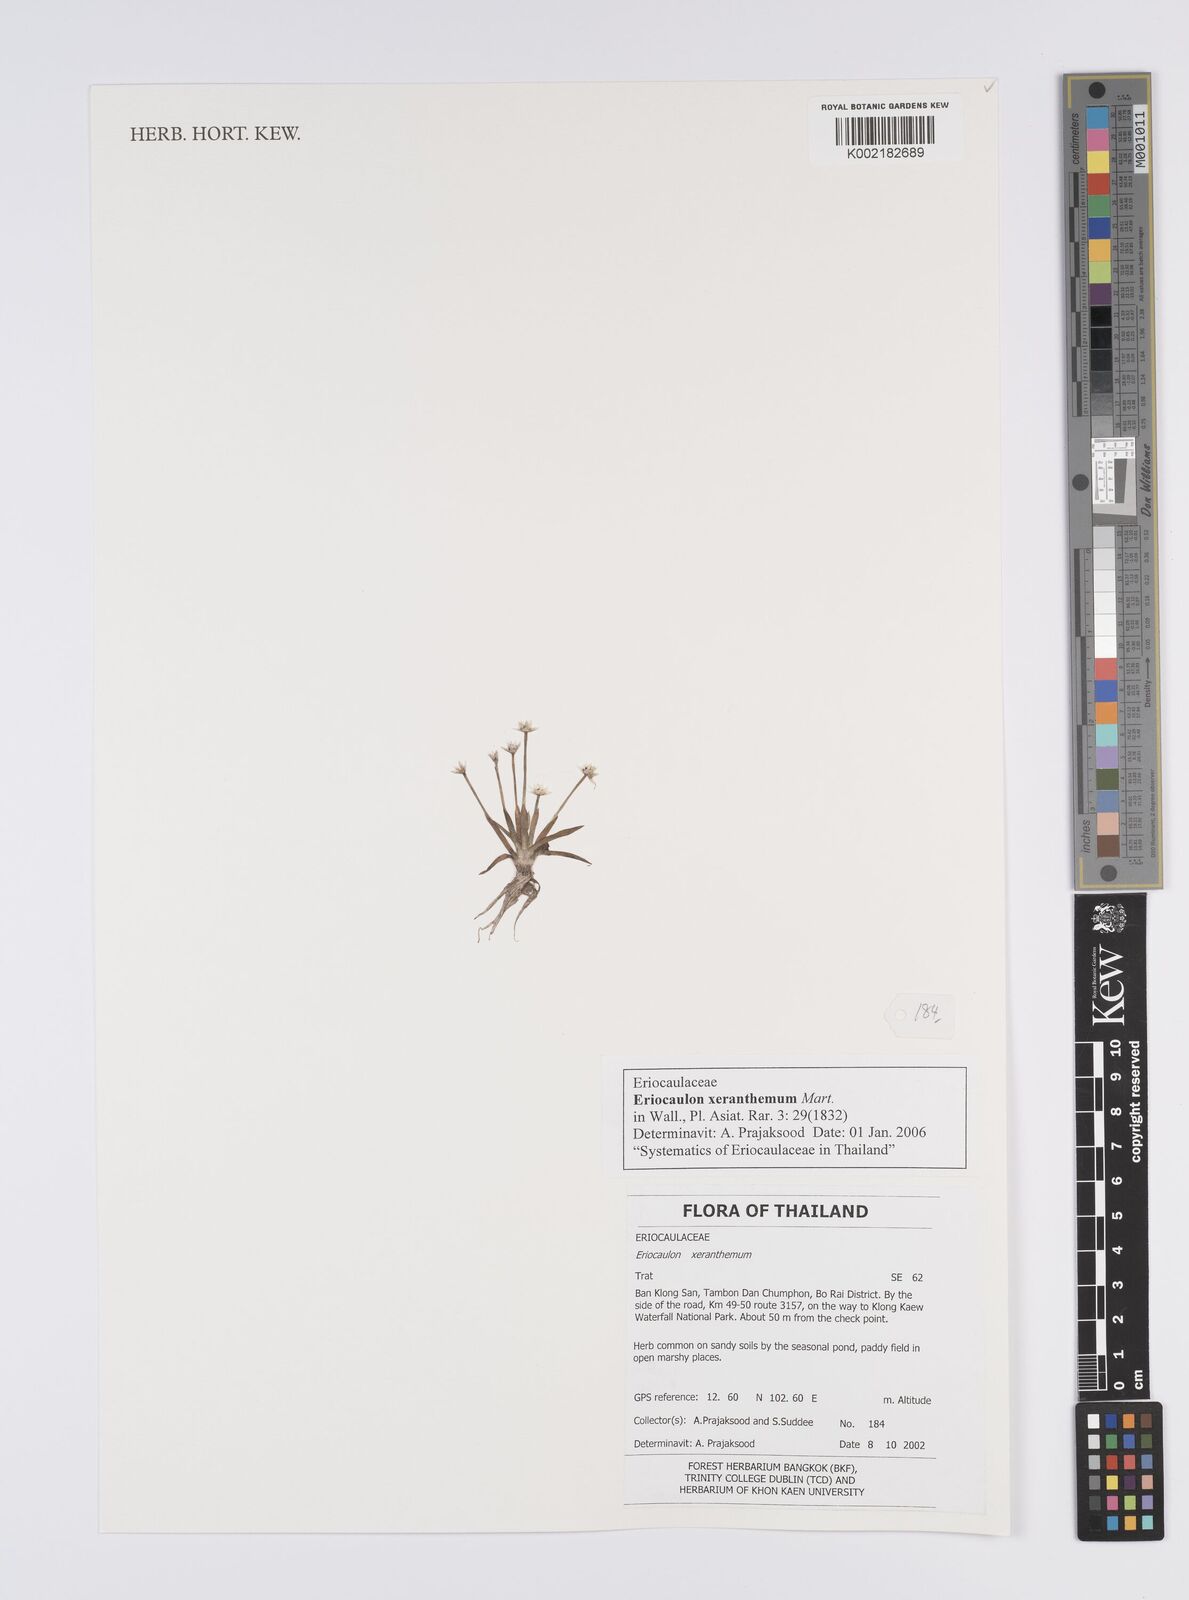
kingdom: Plantae
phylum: Tracheophyta
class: Liliopsida
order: Poales
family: Eriocaulaceae
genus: Eriocaulon
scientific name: Eriocaulon xeranthemum
